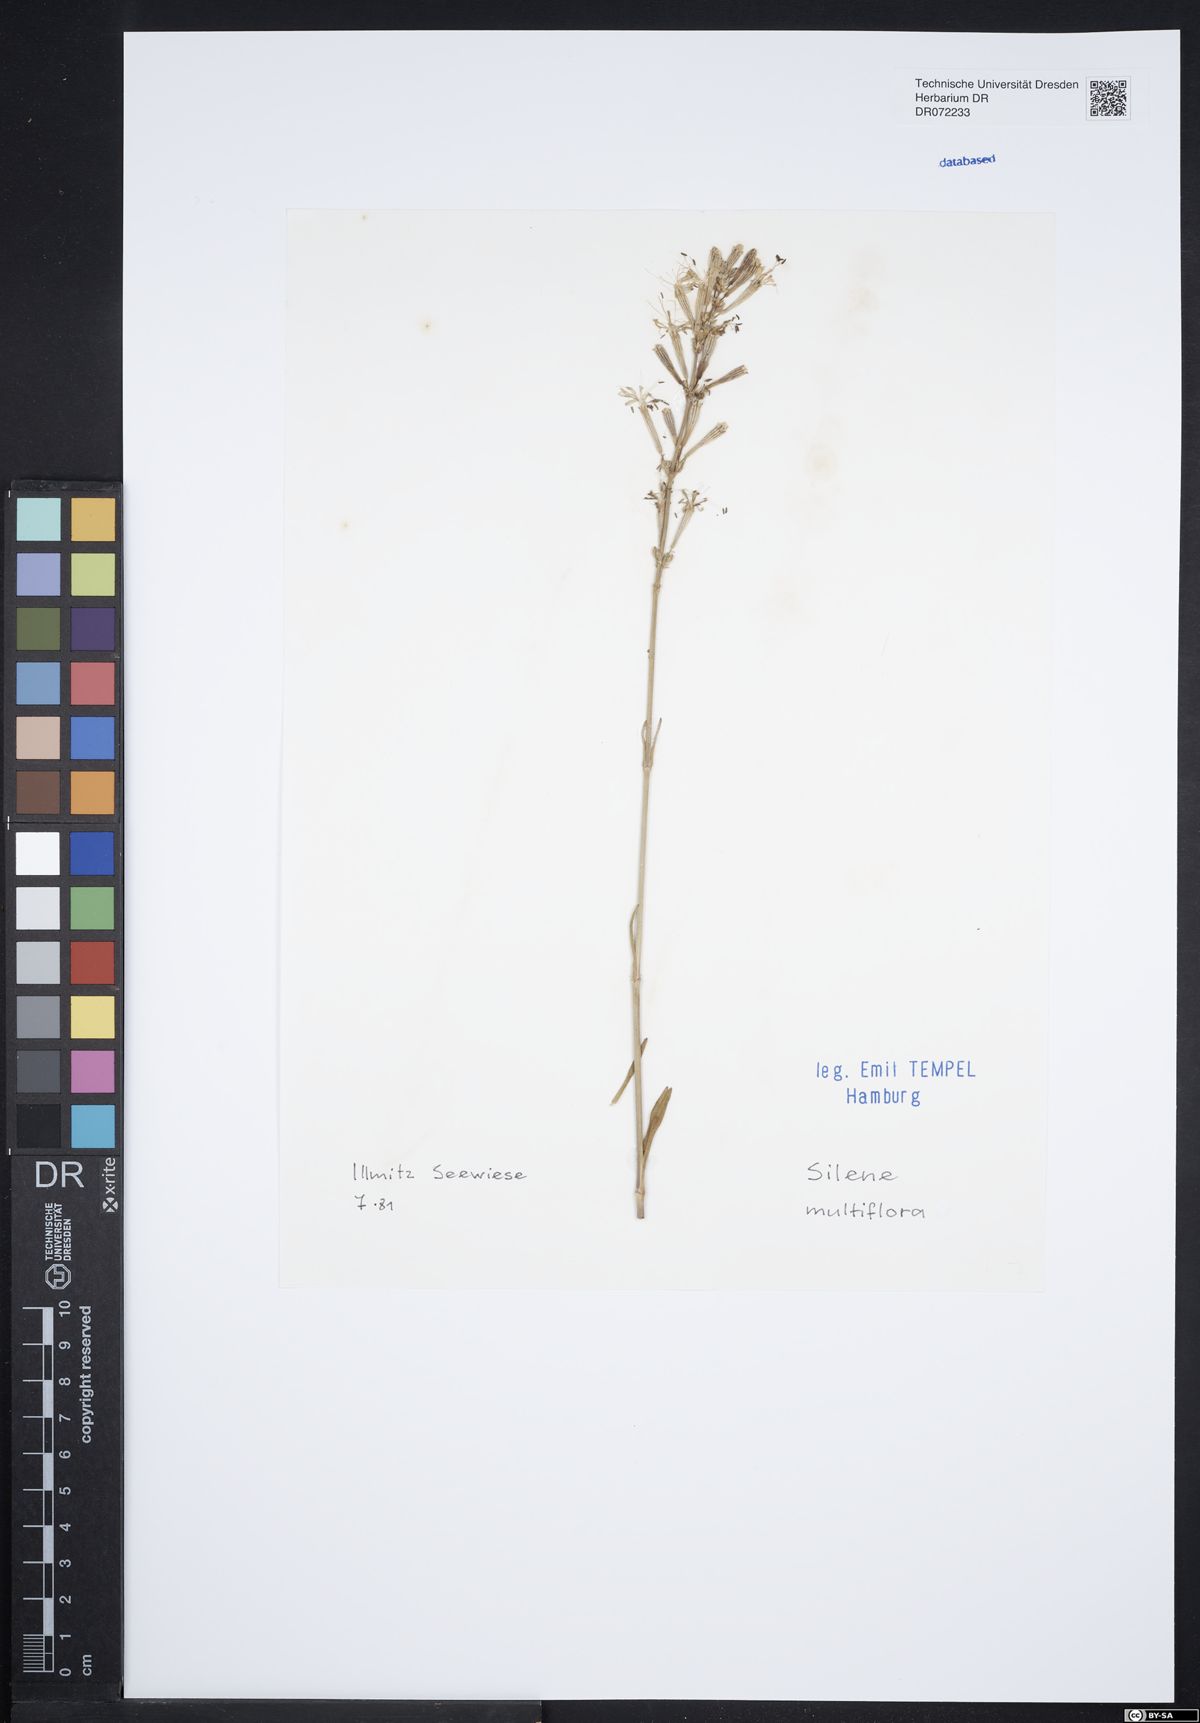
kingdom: Plantae
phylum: Tracheophyta
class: Magnoliopsida
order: Caryophyllales
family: Caryophyllaceae
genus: Silene
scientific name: Silene multiflora
